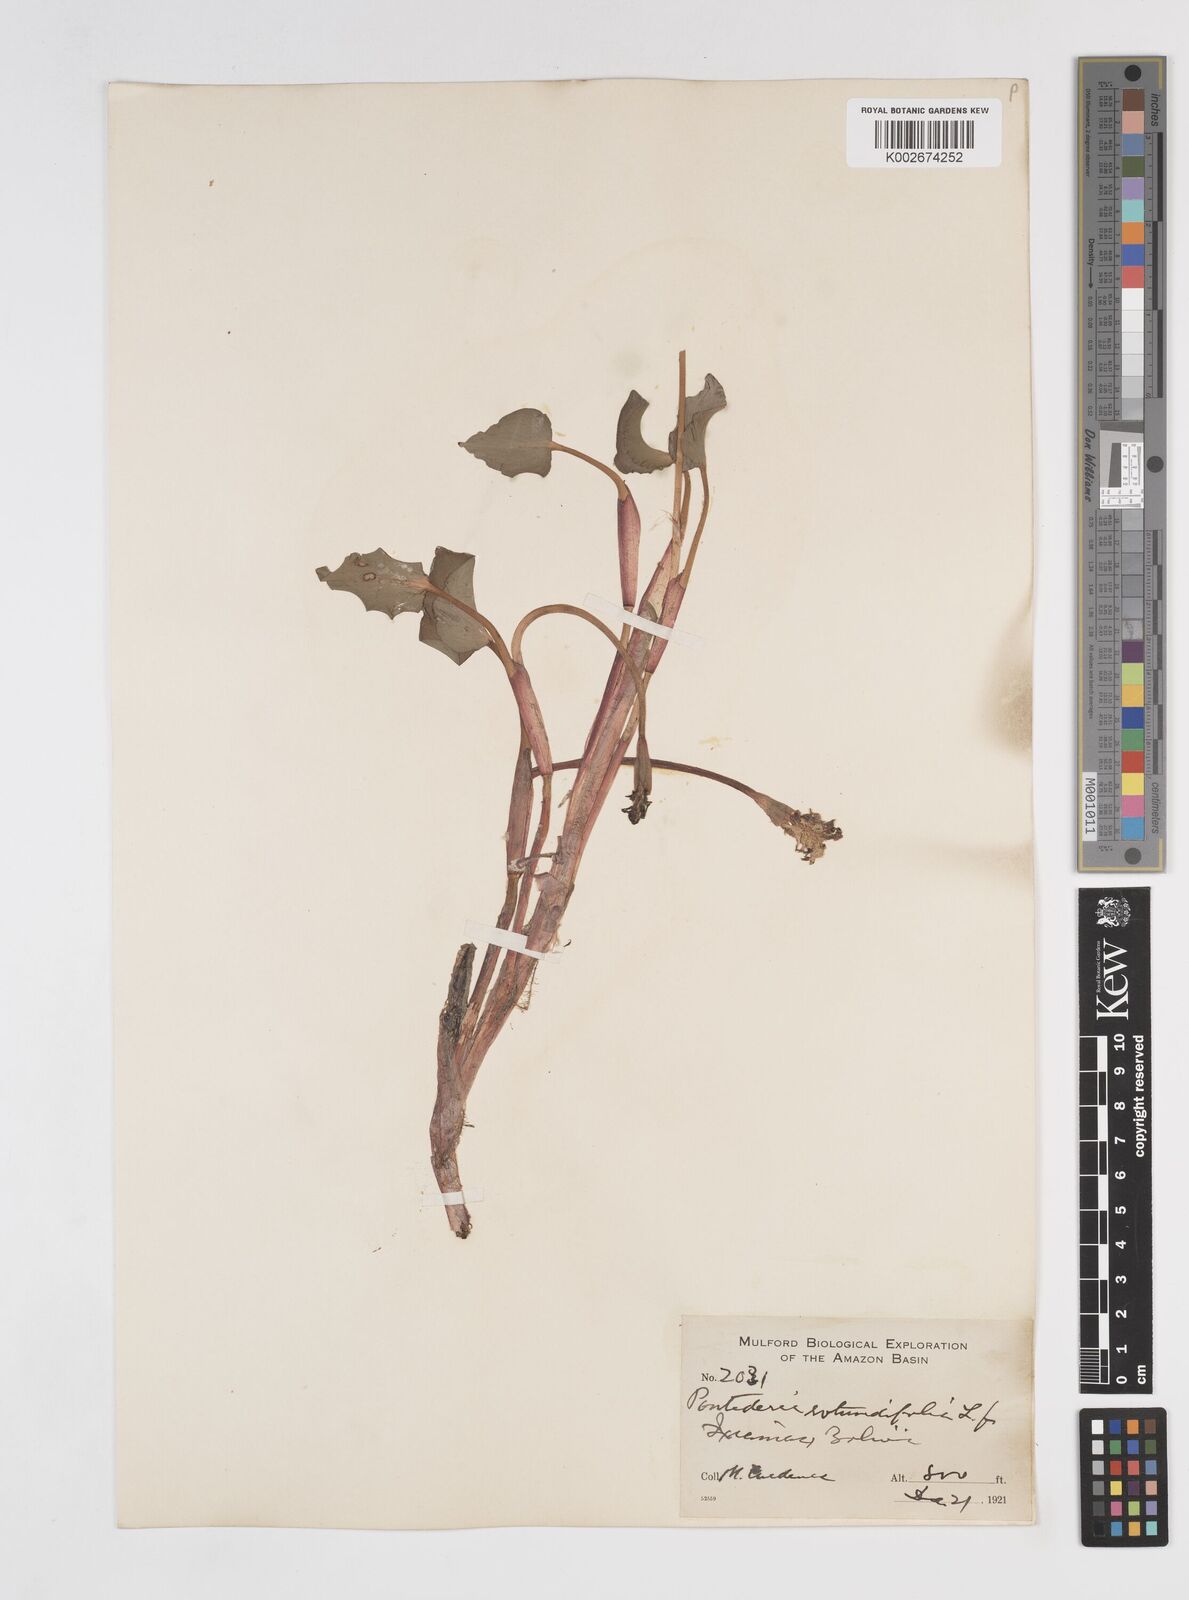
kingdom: Plantae
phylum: Tracheophyta
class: Liliopsida
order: Commelinales
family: Pontederiaceae
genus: Pontederia
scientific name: Pontederia rotundifolia
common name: Tropical pickerel-weed
